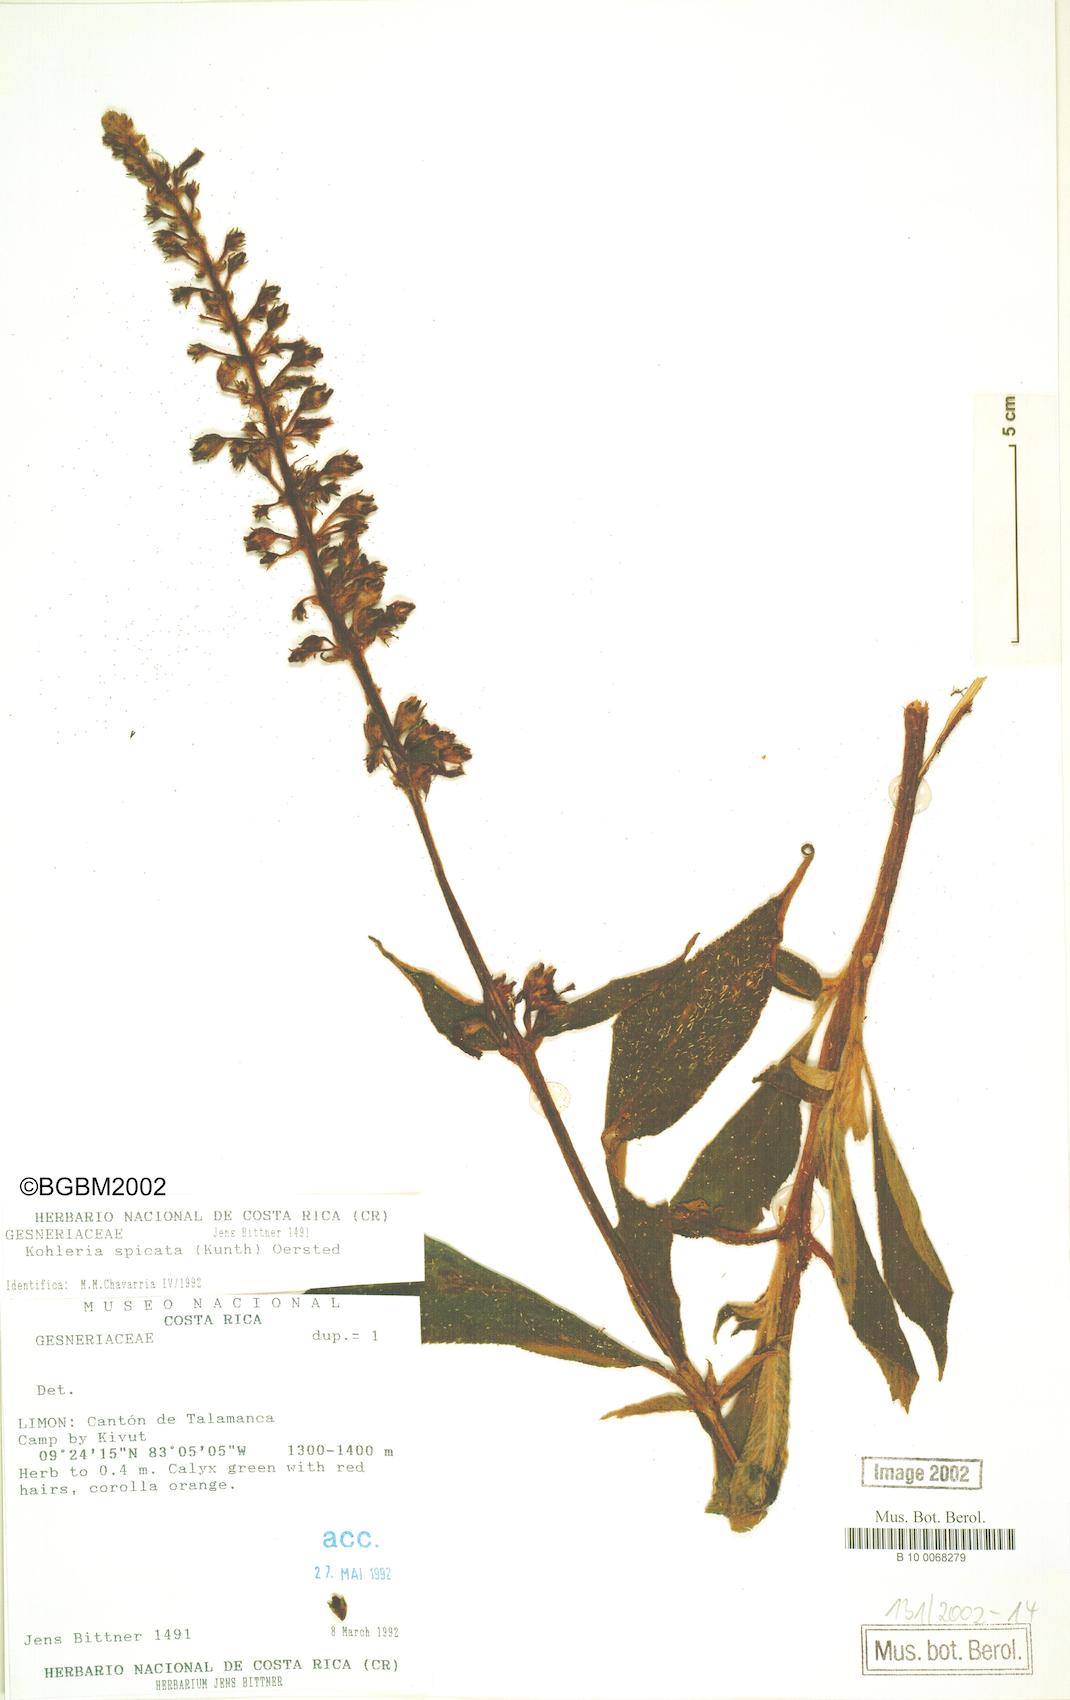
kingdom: Plantae
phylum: Tracheophyta
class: Magnoliopsida
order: Lamiales
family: Gesneriaceae
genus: Kohleria
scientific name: Kohleria spicata
